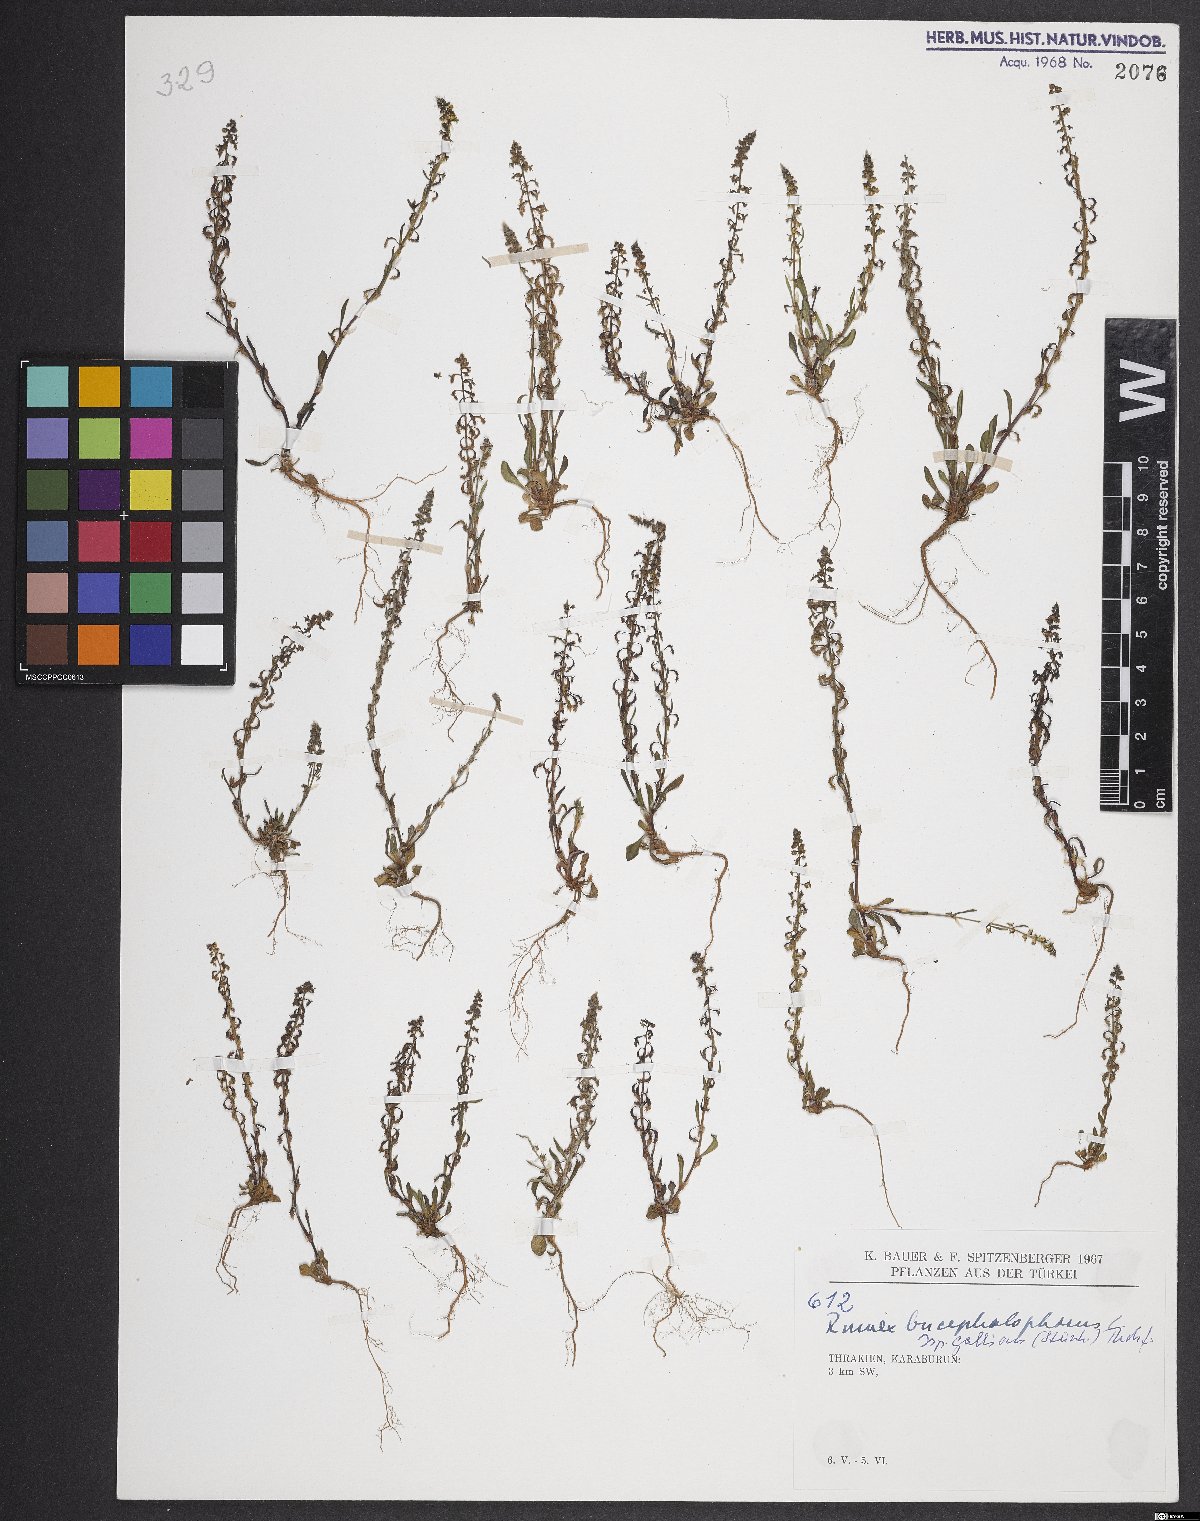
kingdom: Plantae
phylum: Tracheophyta
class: Magnoliopsida
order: Caryophyllales
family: Polygonaceae
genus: Rumex
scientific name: Rumex bucephalophorus
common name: Red dock
